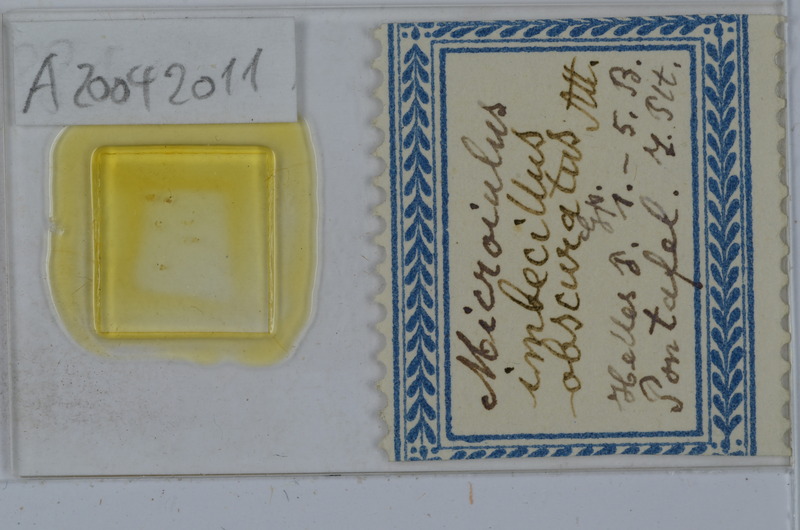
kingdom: Animalia
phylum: Arthropoda
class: Diplopoda
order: Julida
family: Julidae
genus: Xestoiulus
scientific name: Xestoiulus imbecillus
